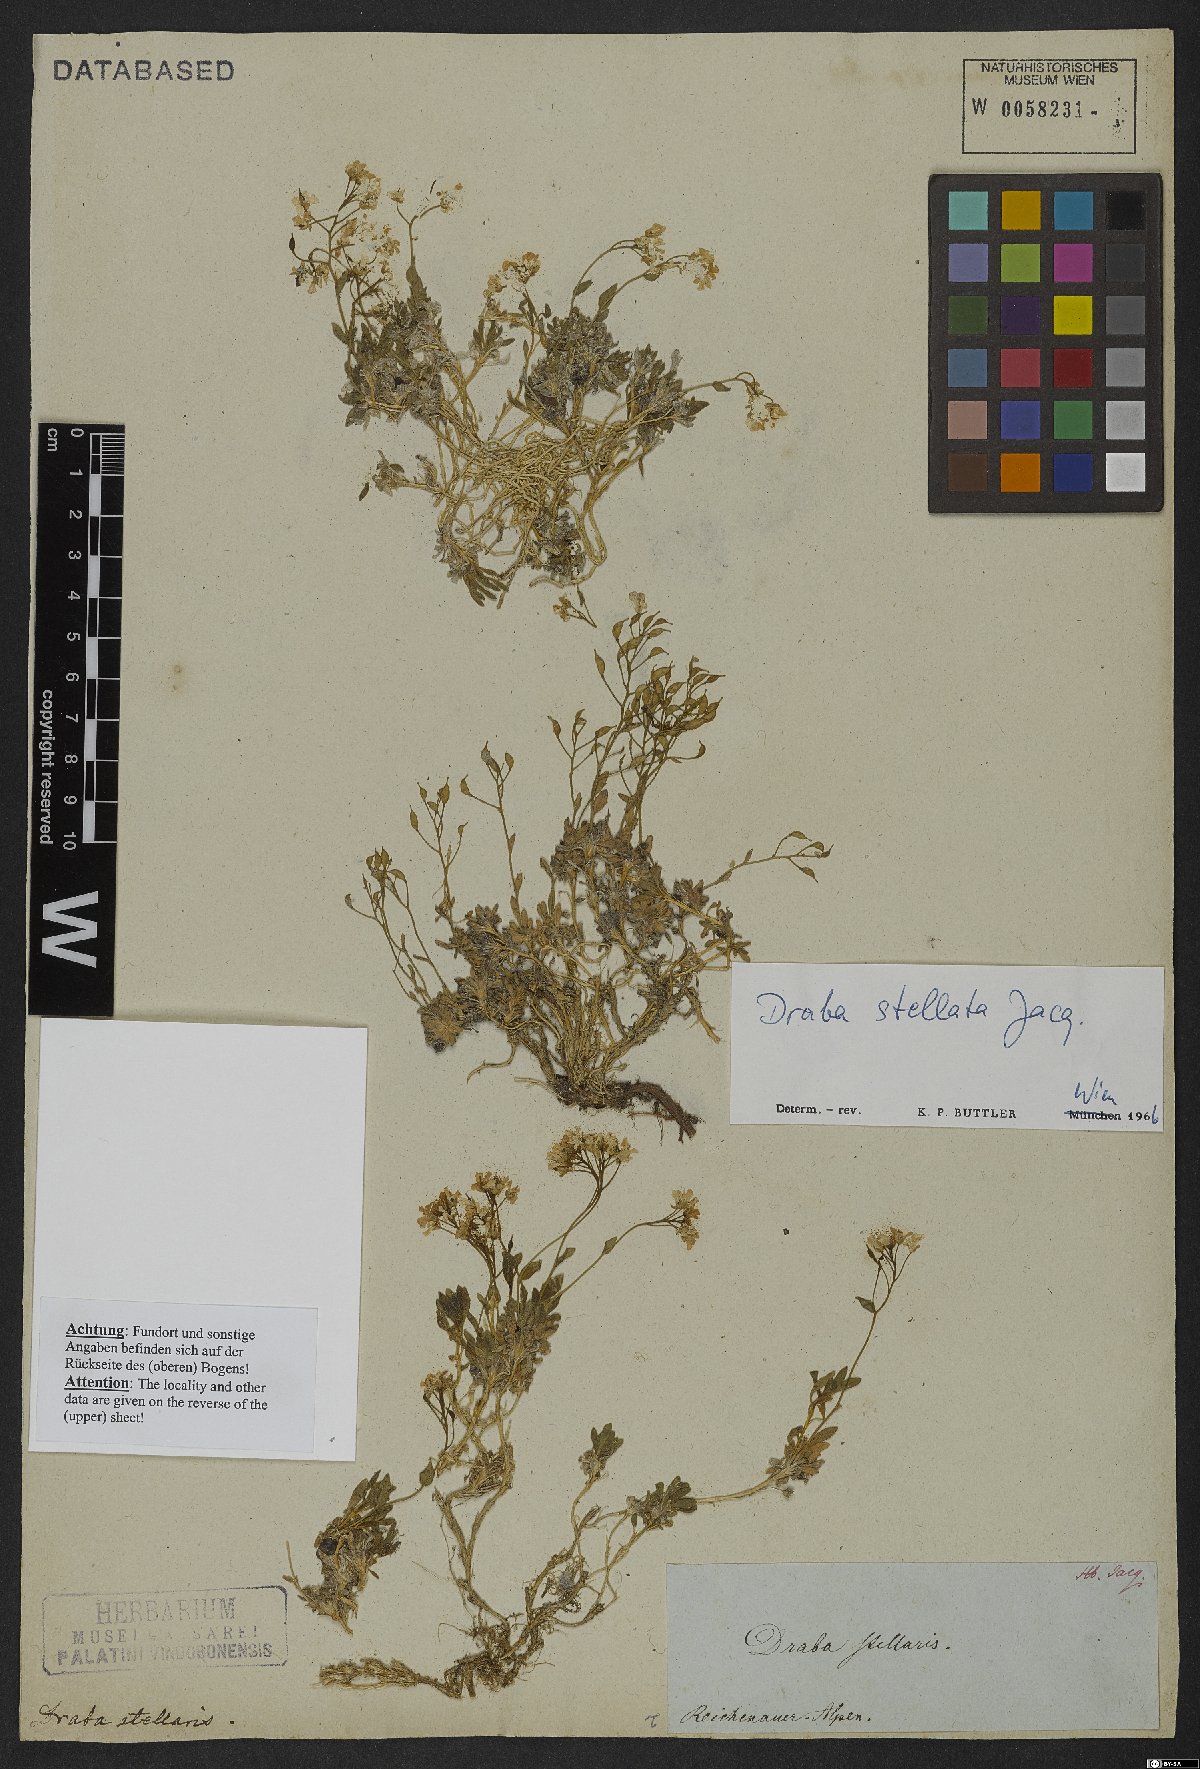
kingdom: Plantae
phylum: Tracheophyta
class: Magnoliopsida
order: Brassicales
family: Brassicaceae
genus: Draba
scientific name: Draba stellata
